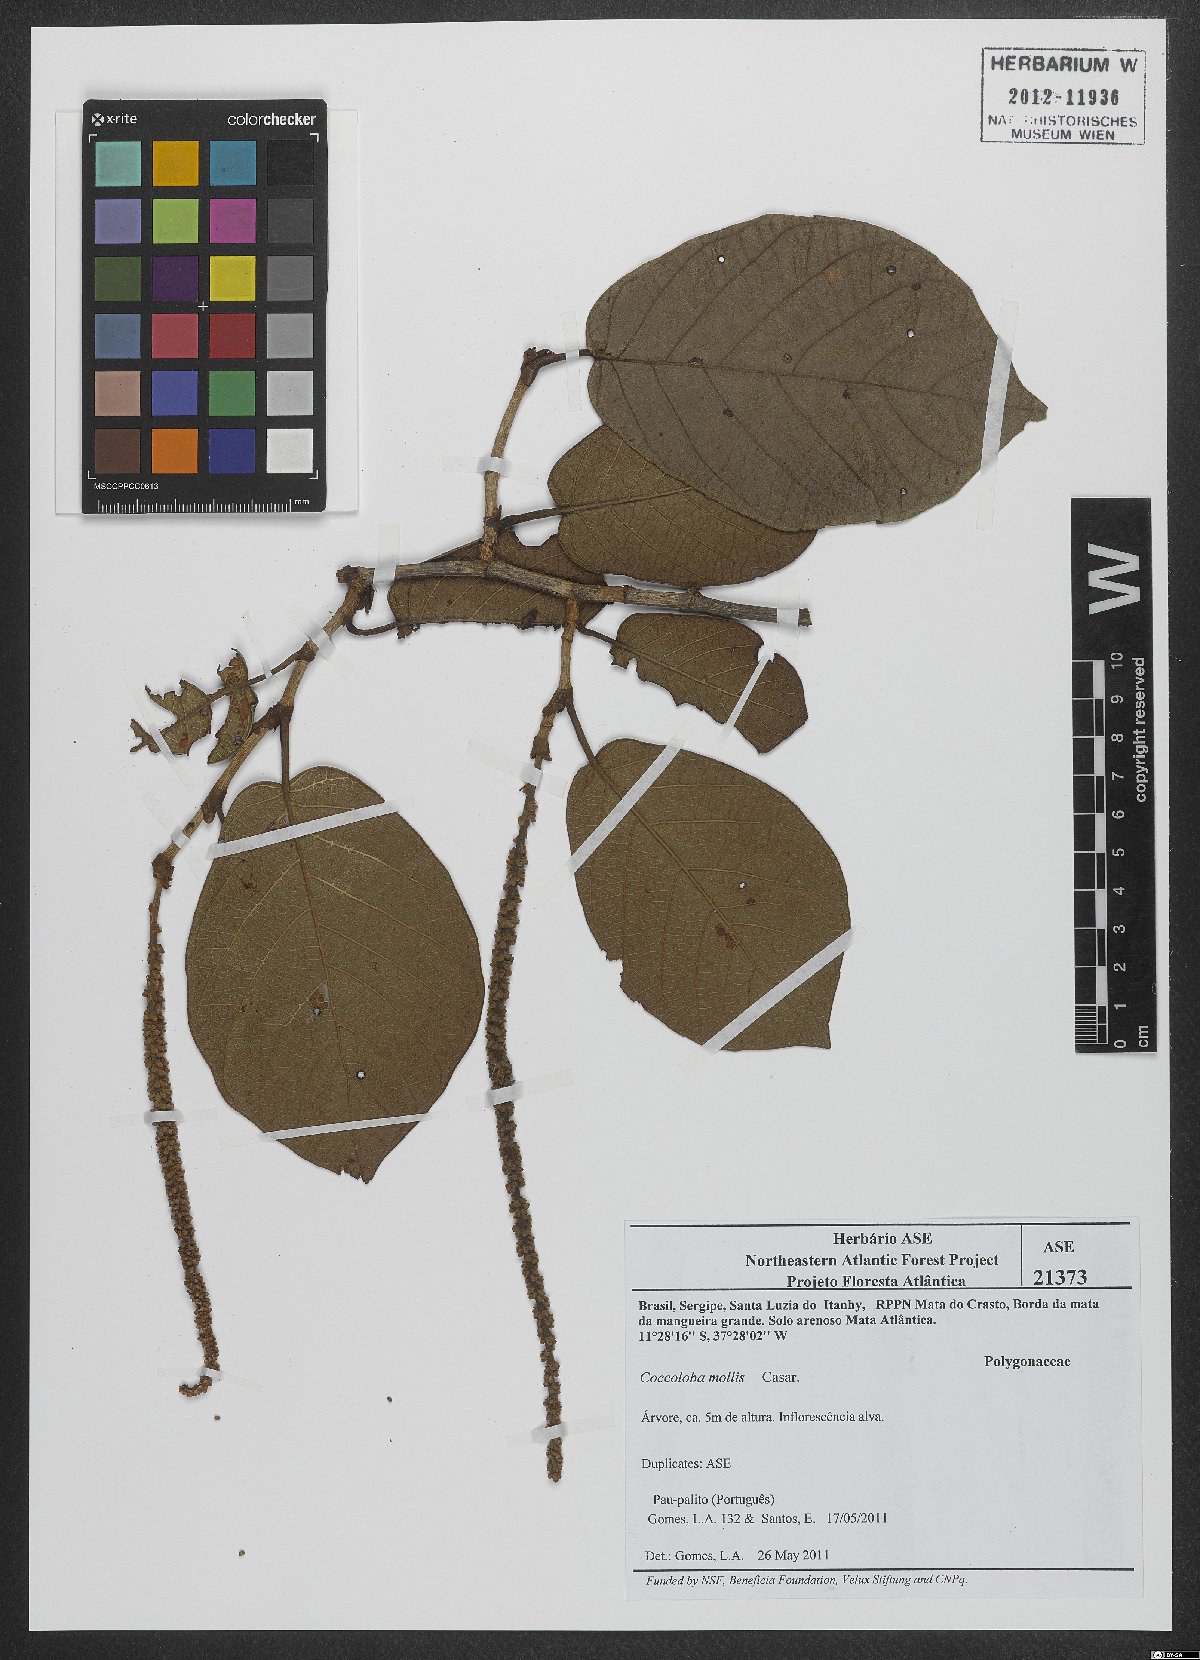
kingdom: Plantae
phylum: Tracheophyta
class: Magnoliopsida
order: Caryophyllales
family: Polygonaceae
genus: Coccoloba
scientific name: Coccoloba mollis
